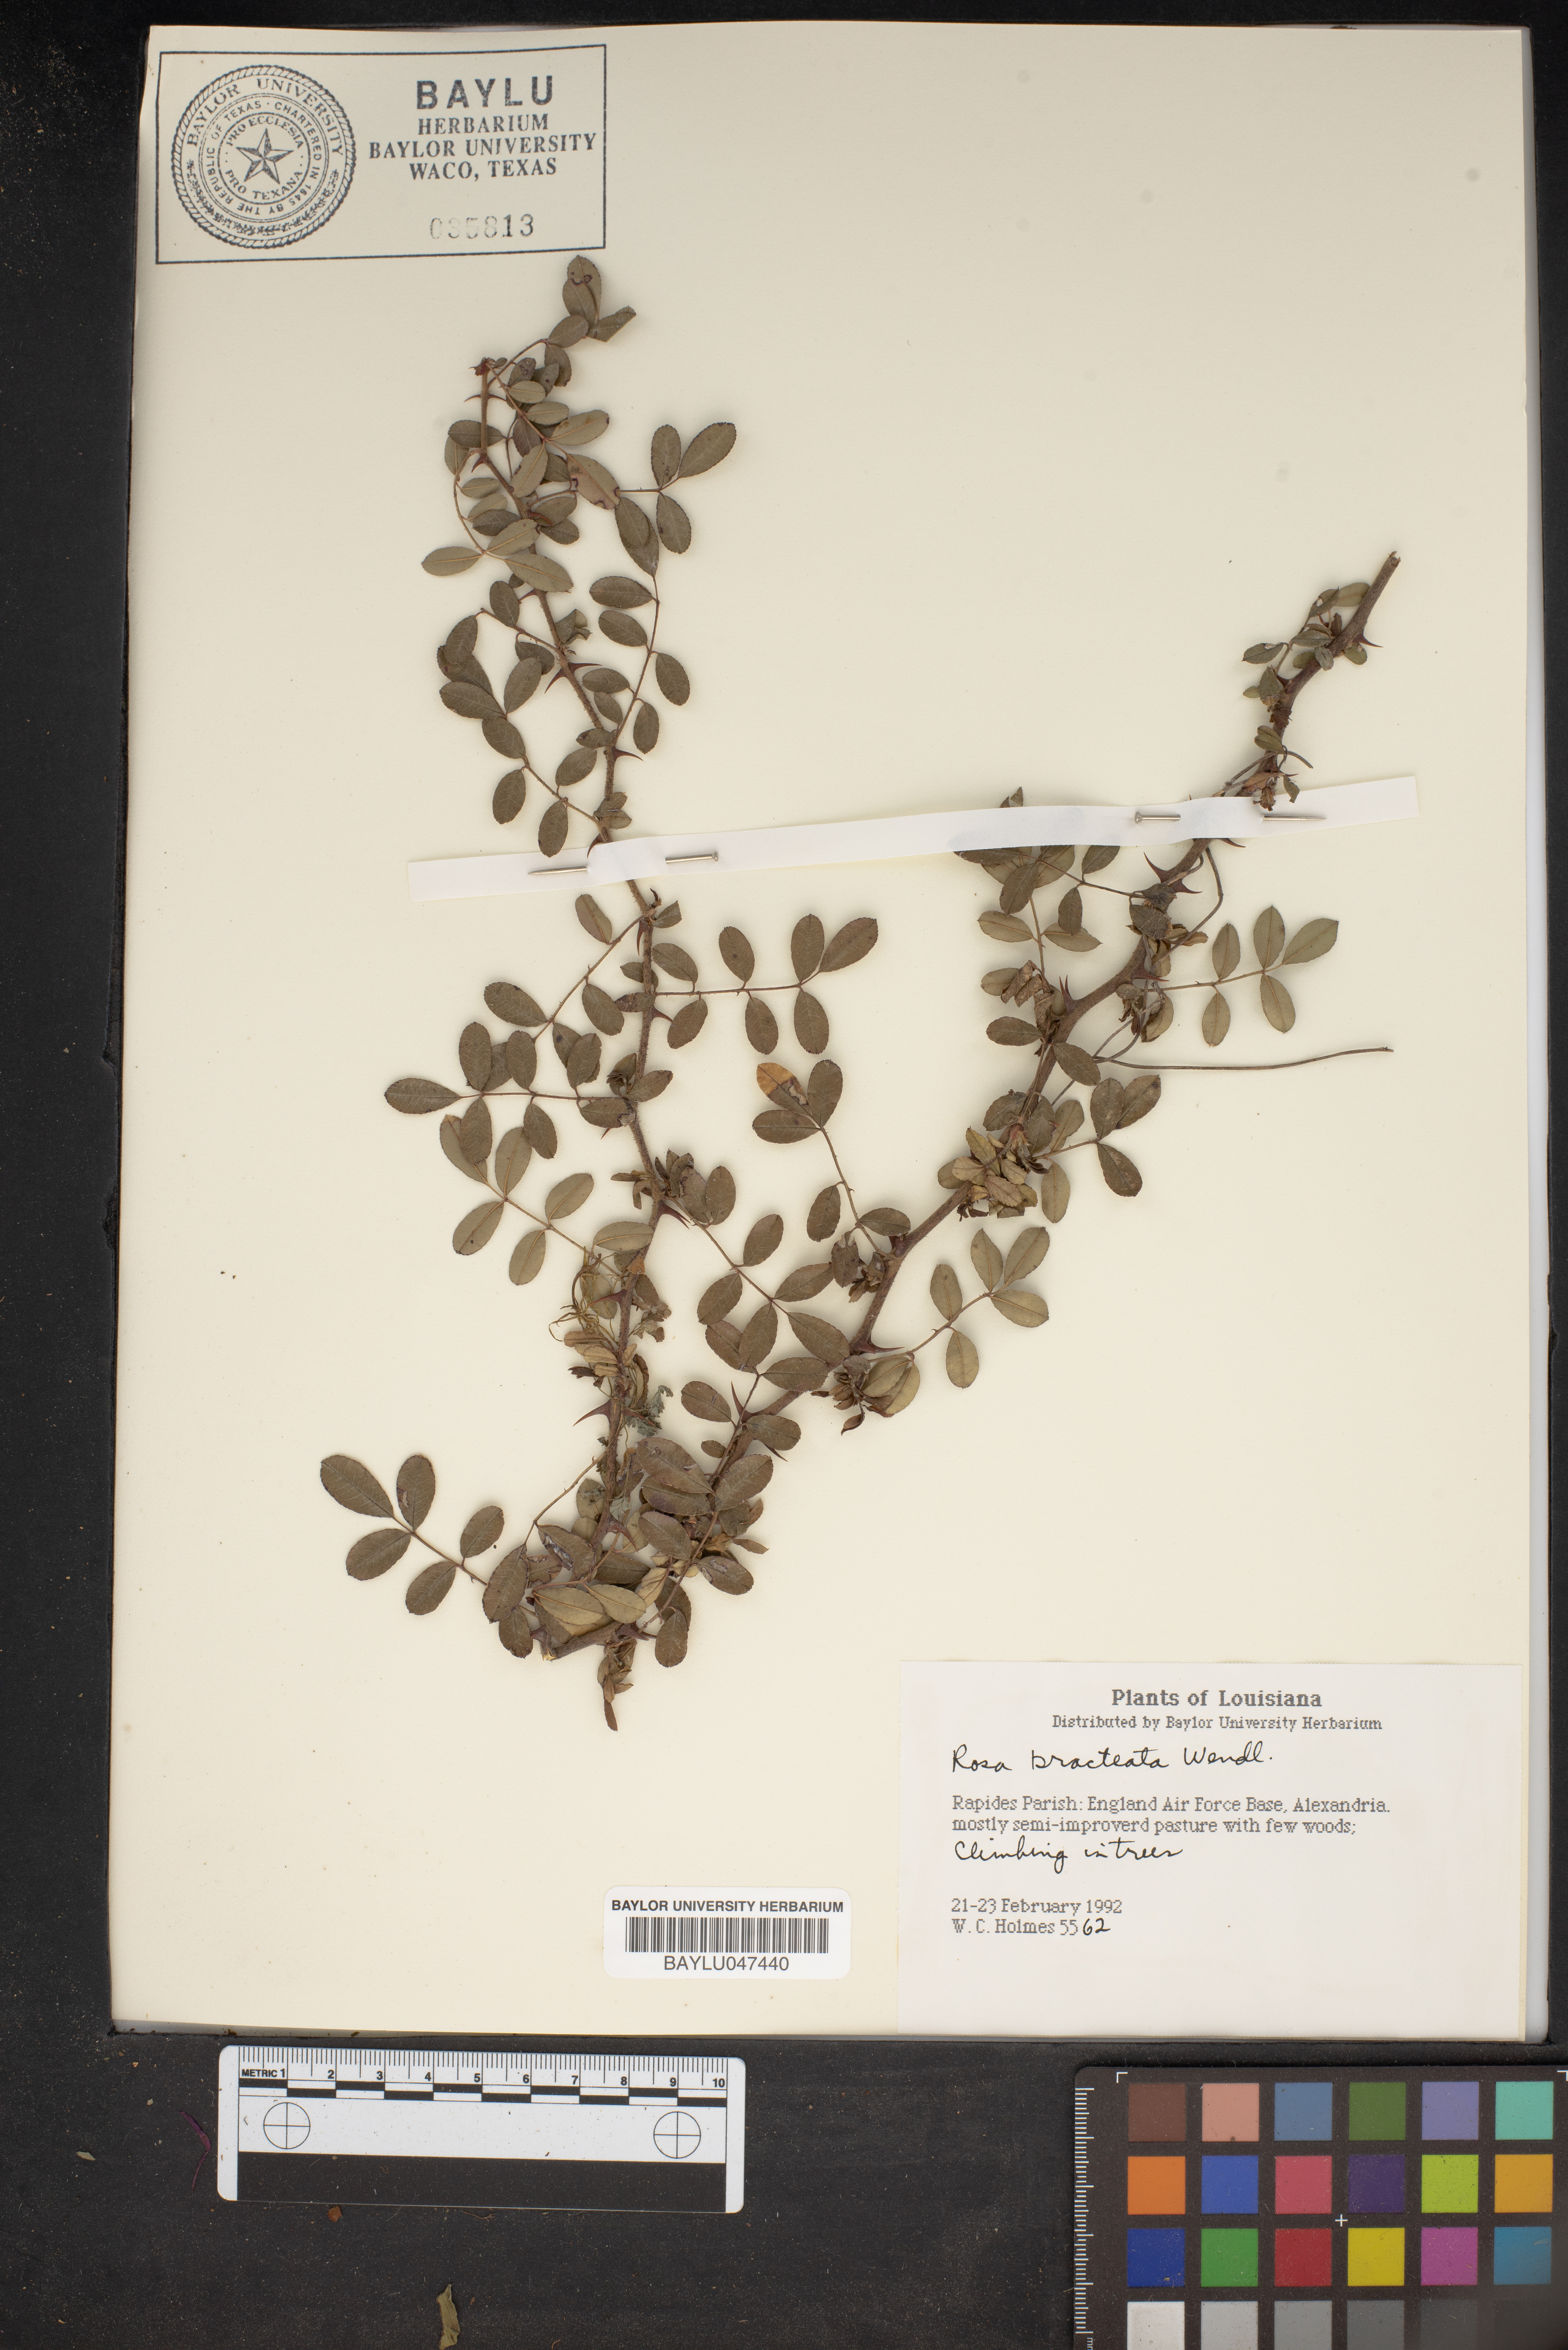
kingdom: Plantae
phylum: Tracheophyta
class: Magnoliopsida
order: Rosales
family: Rosaceae
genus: Rosa
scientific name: Rosa bracteata
